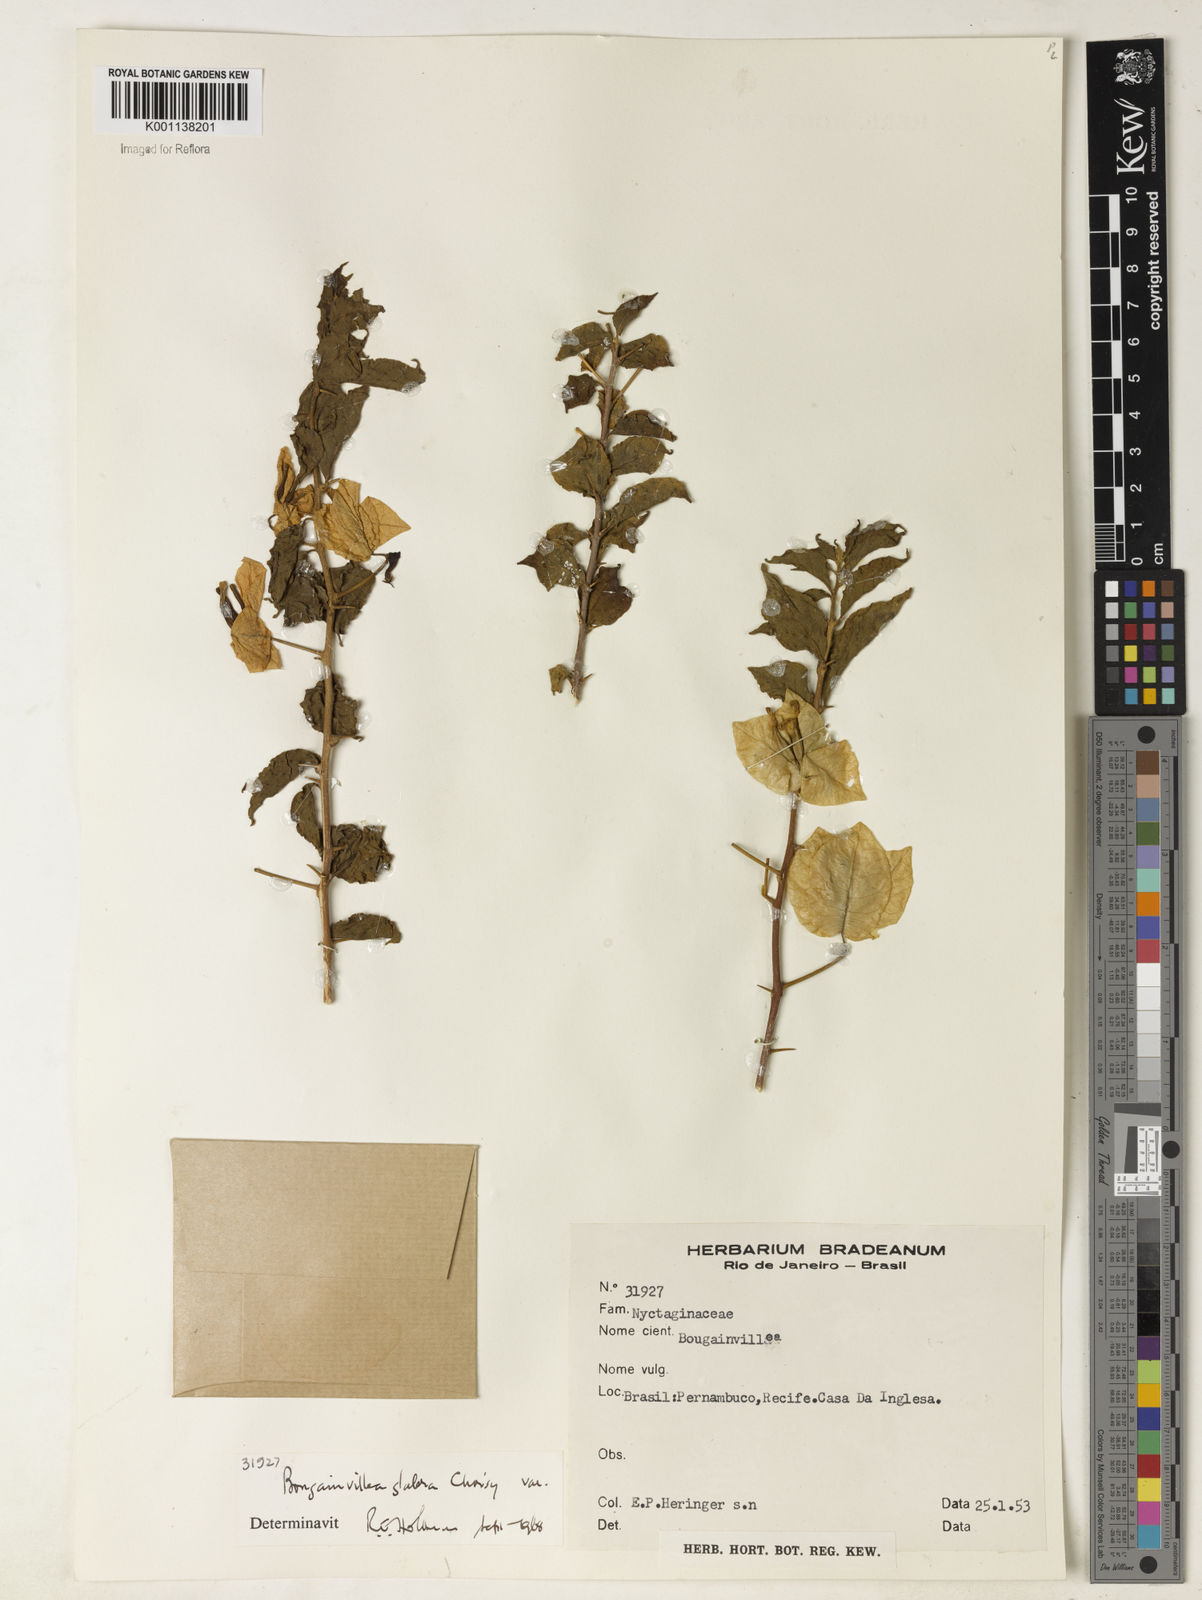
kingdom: Plantae
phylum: Tracheophyta
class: Magnoliopsida
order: Caryophyllales
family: Nyctaginaceae
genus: Bougainvillea
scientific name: Bougainvillea glabra
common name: Paperflower
